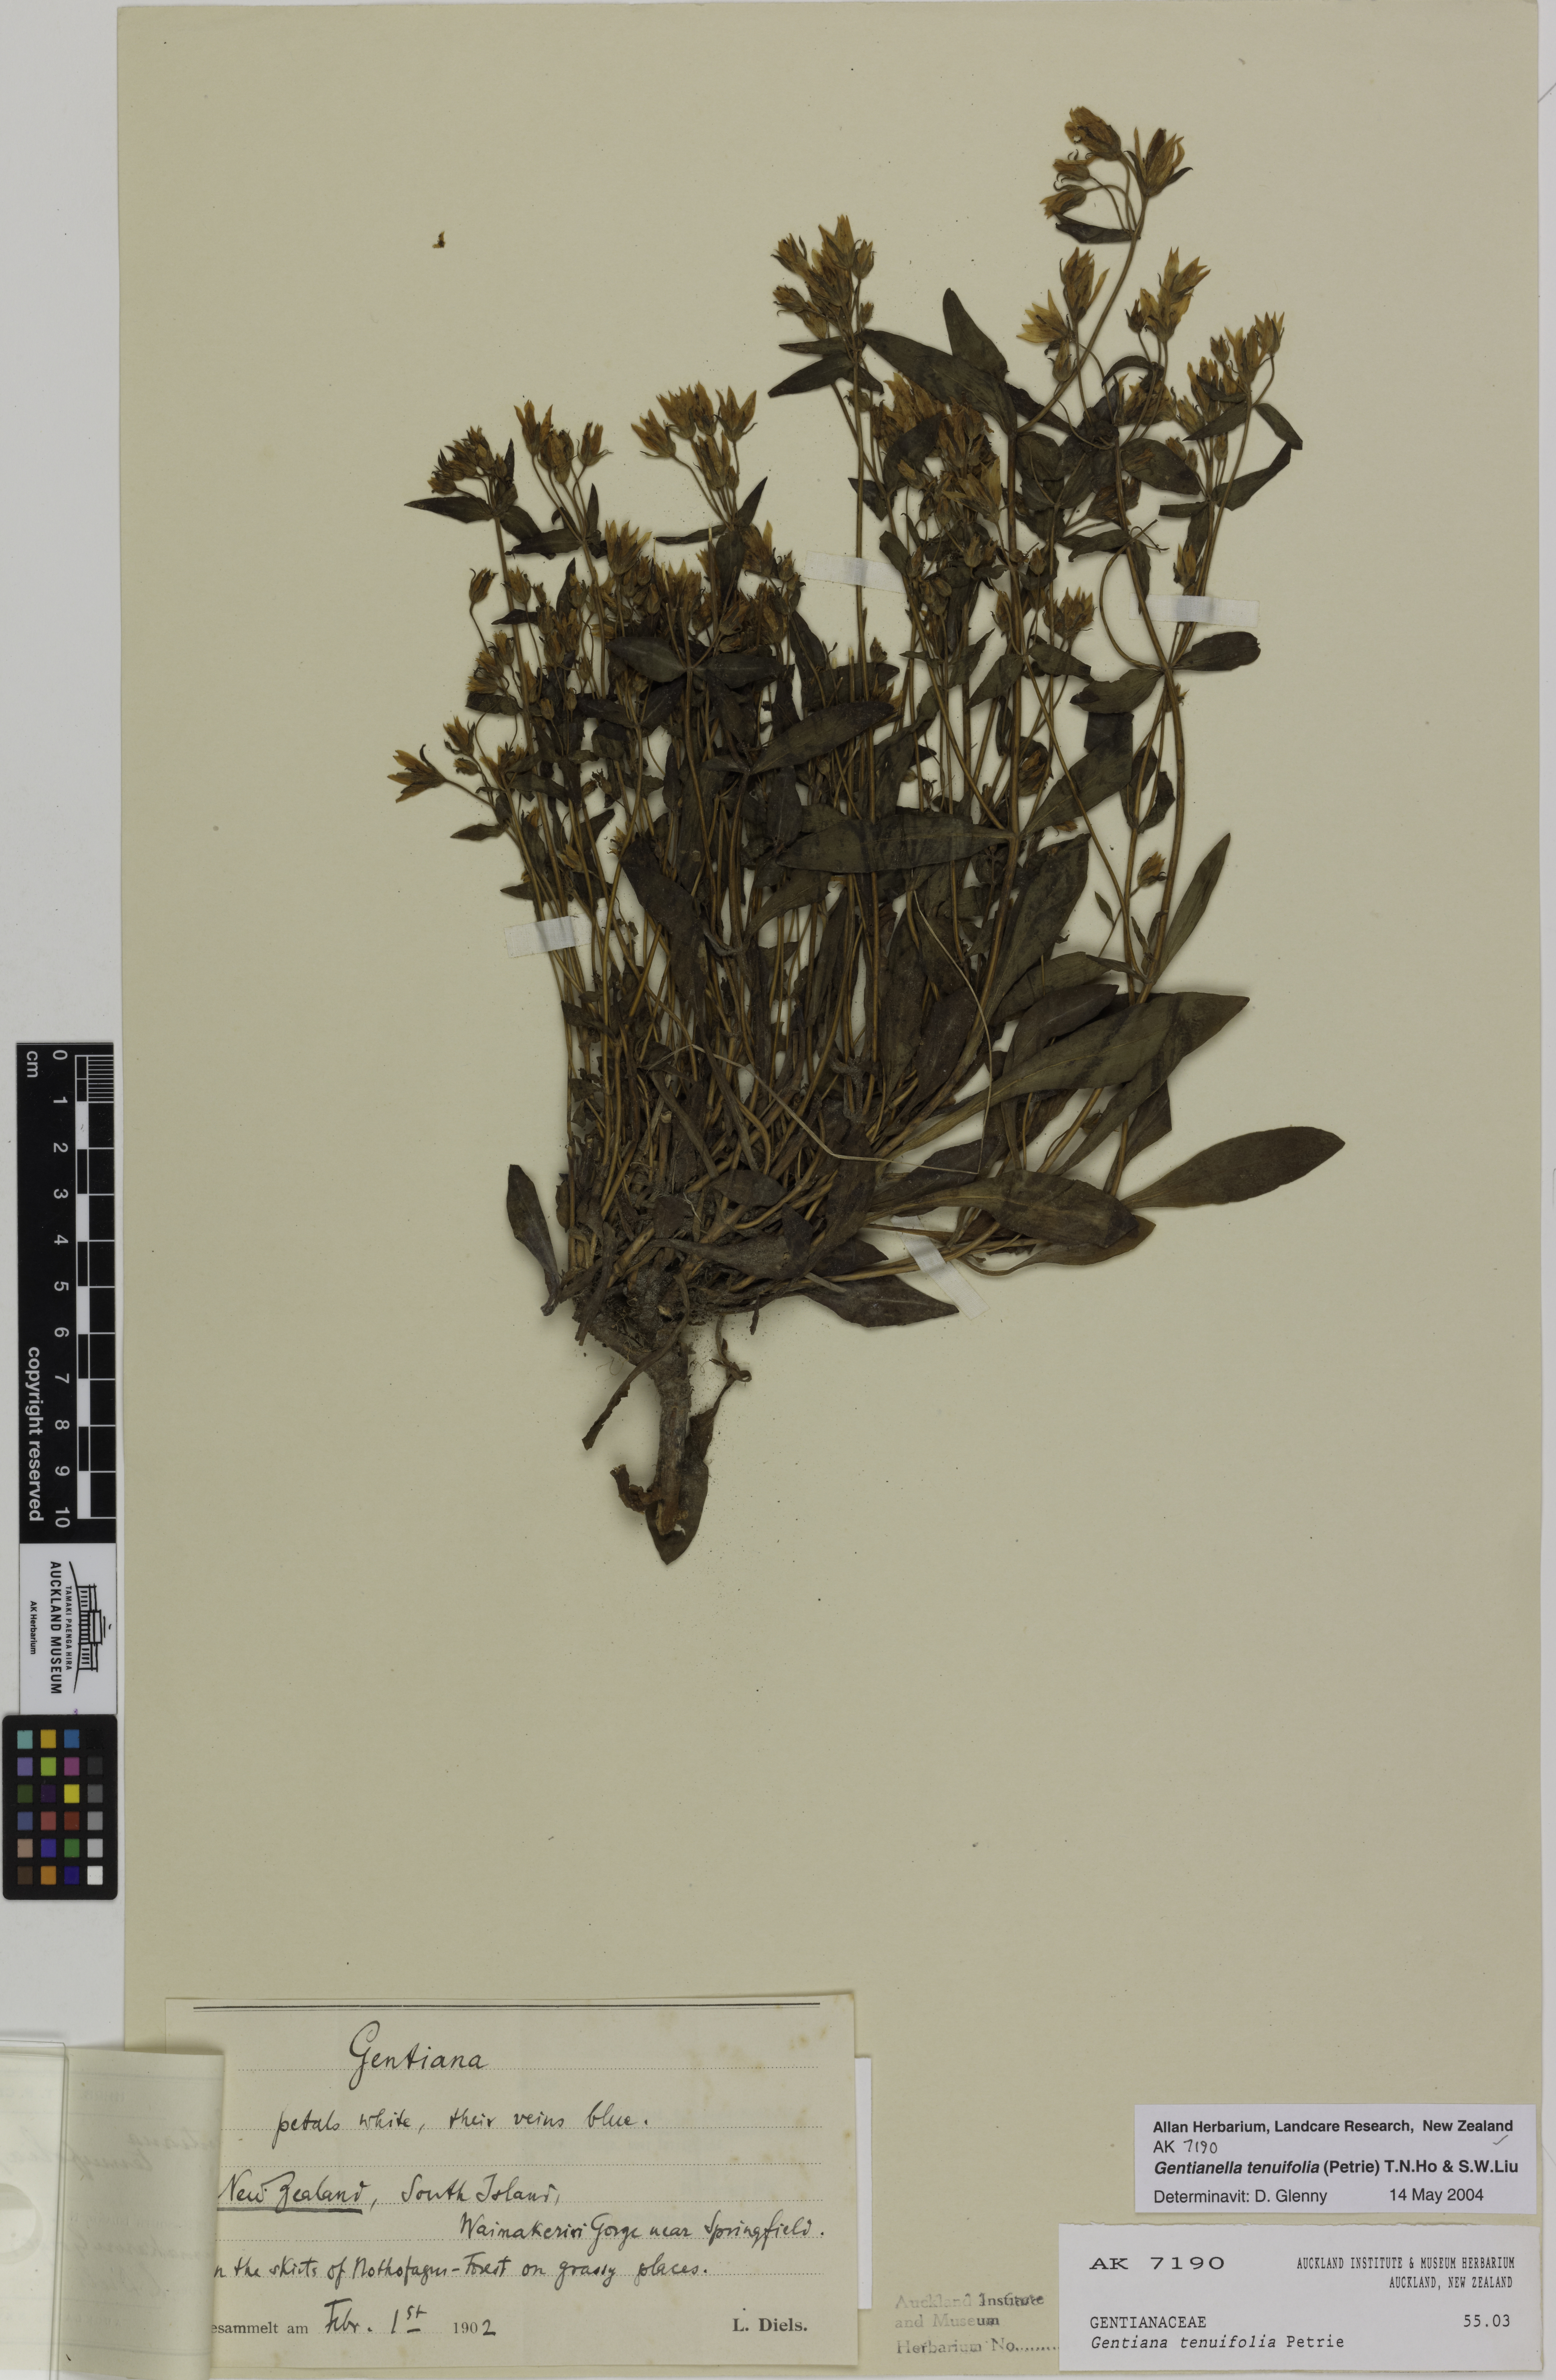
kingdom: Plantae
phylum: Tracheophyta
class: Magnoliopsida
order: Gentianales
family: Gentianaceae
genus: Gentianella
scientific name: Gentianella tenuifolia
